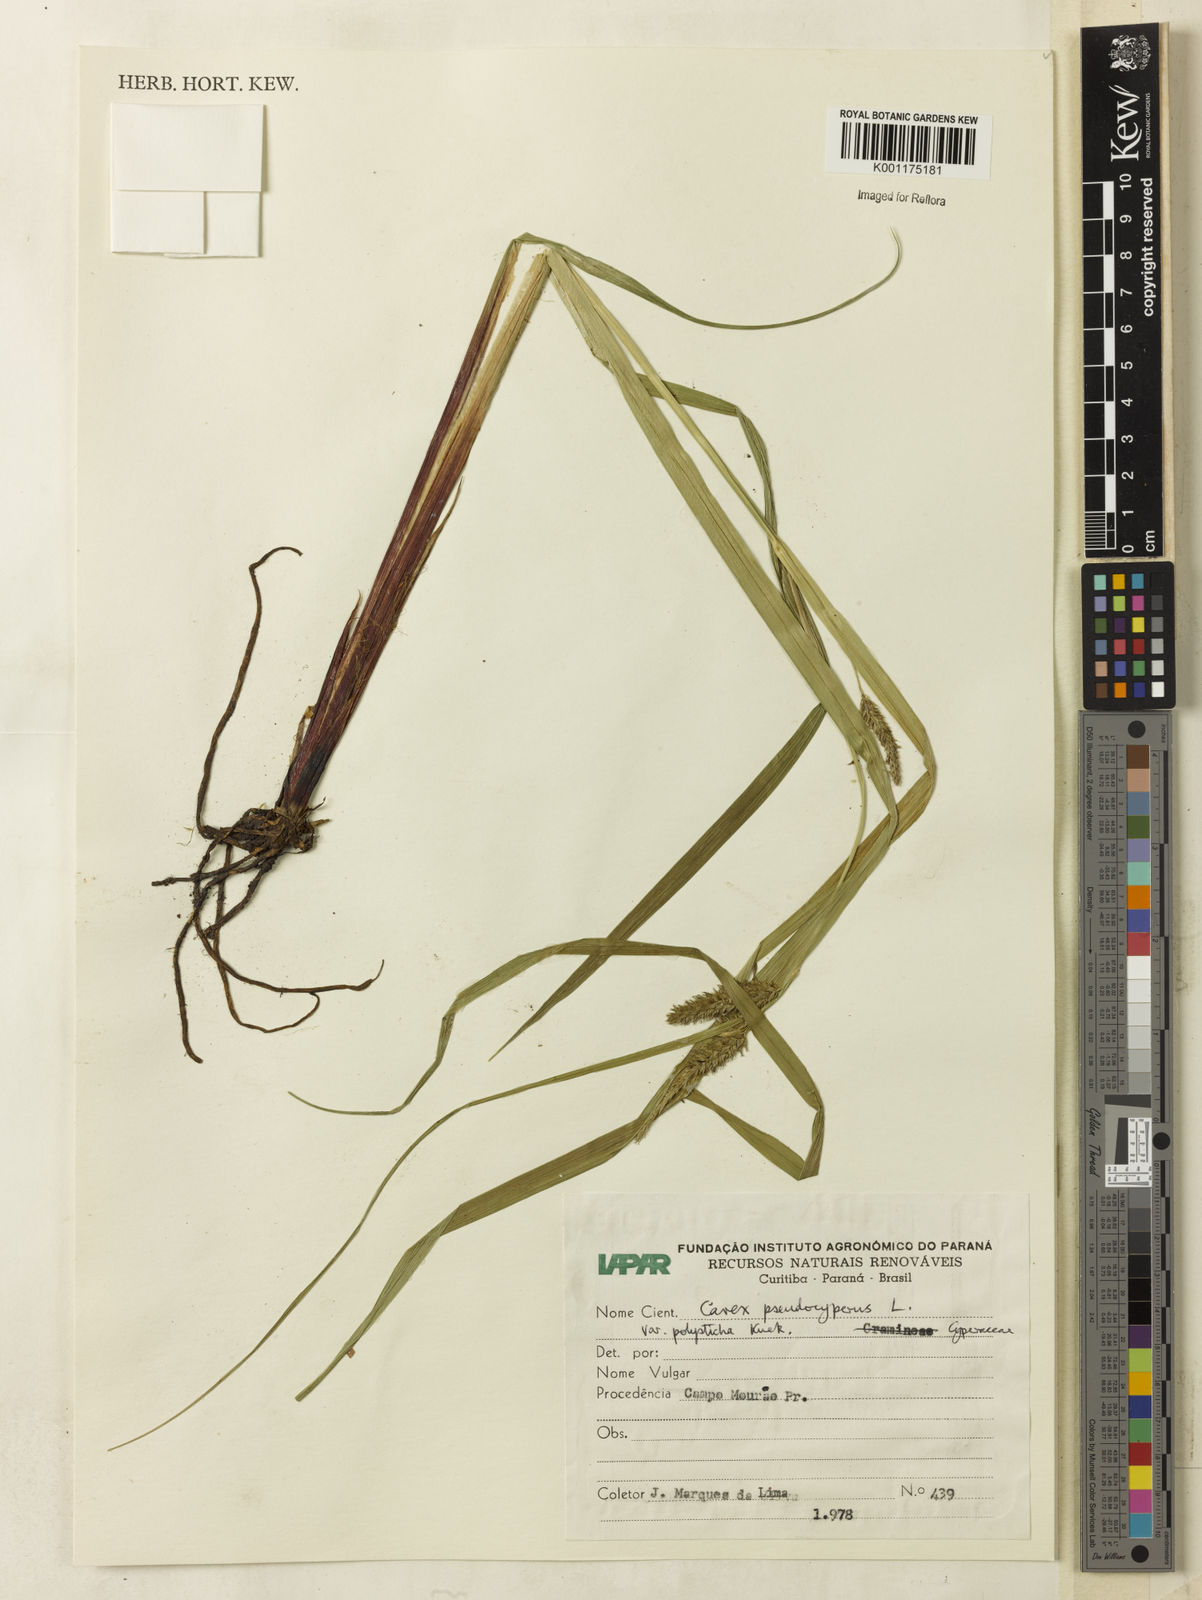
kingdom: Plantae
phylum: Tracheophyta
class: Liliopsida
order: Poales
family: Cyperaceae
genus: Carex
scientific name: Carex polysticha
